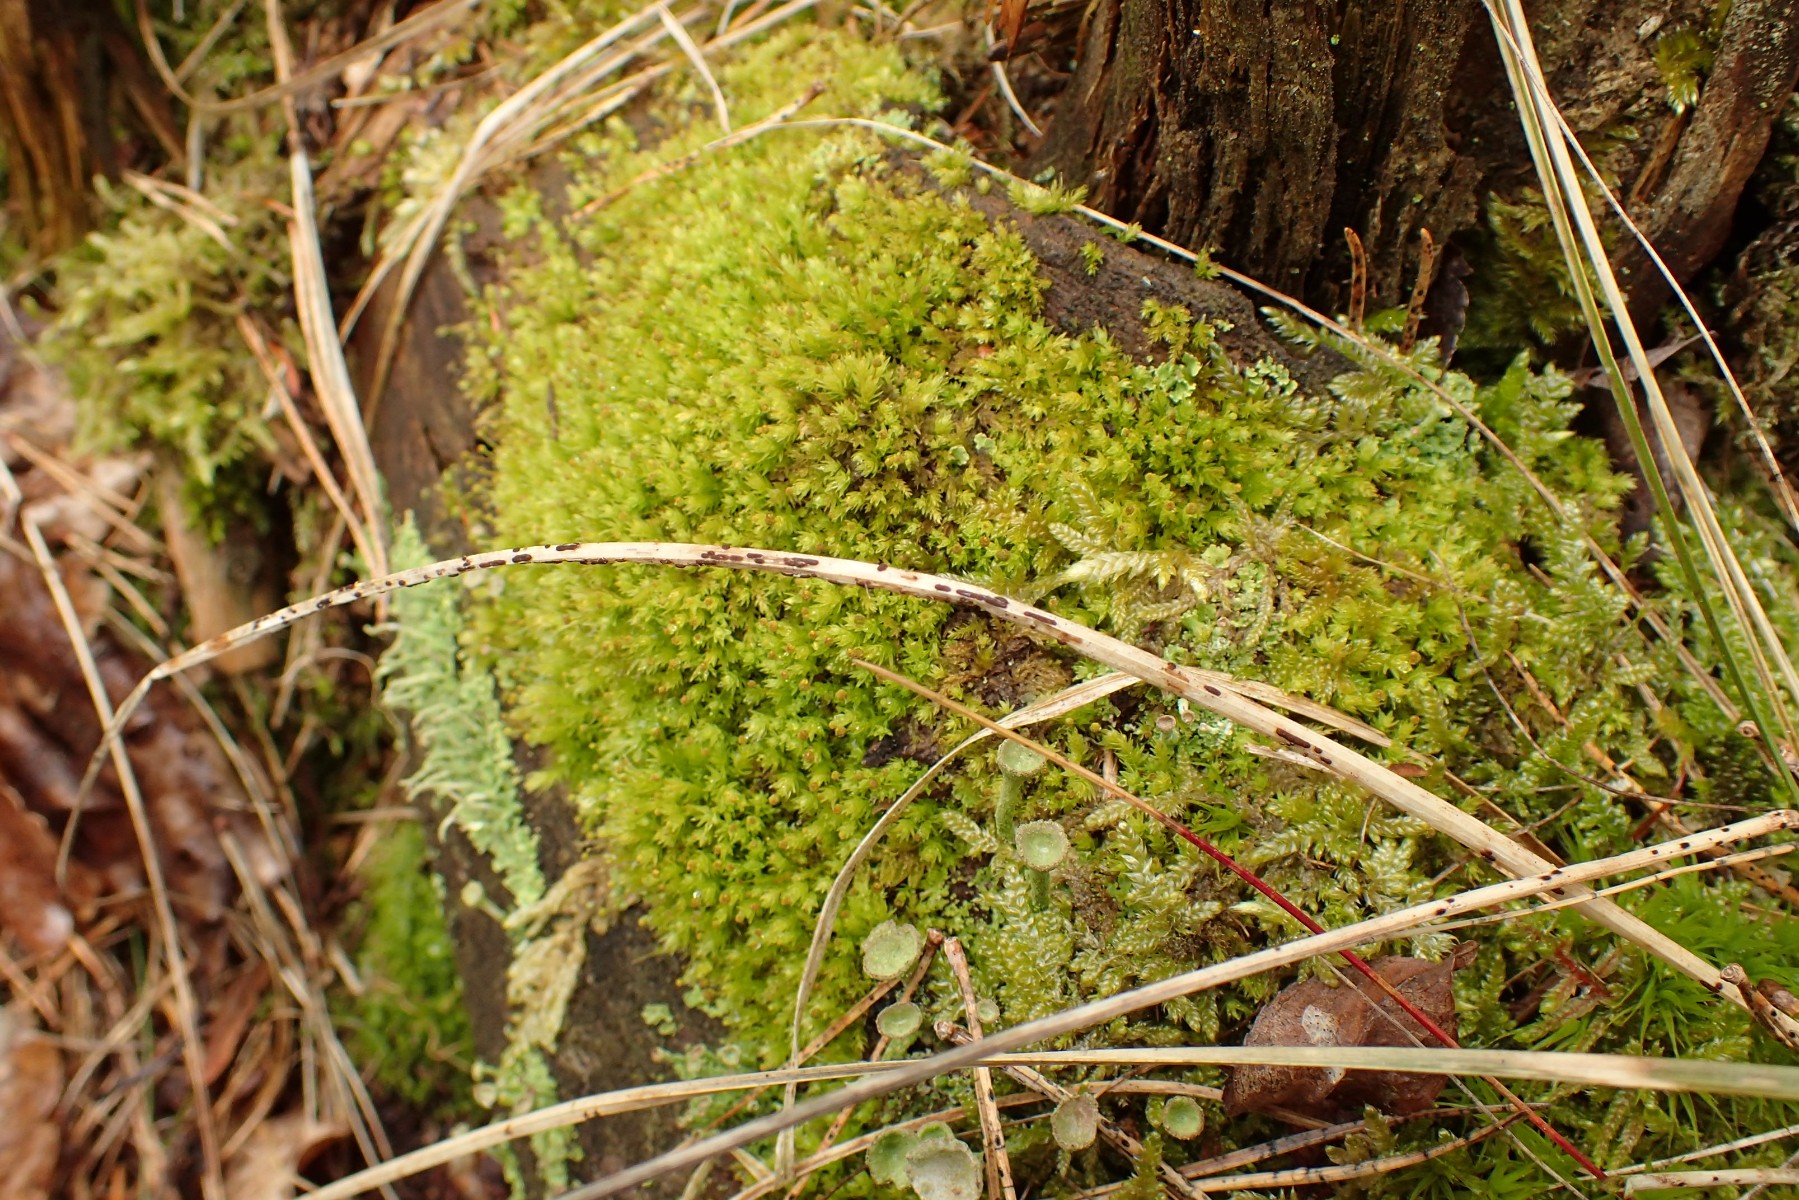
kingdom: Fungi
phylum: Basidiomycota
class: Pucciniomycetes
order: Pucciniales
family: Pucciniaceae
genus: Puccinia
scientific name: Puccinia
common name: tvecellerust
